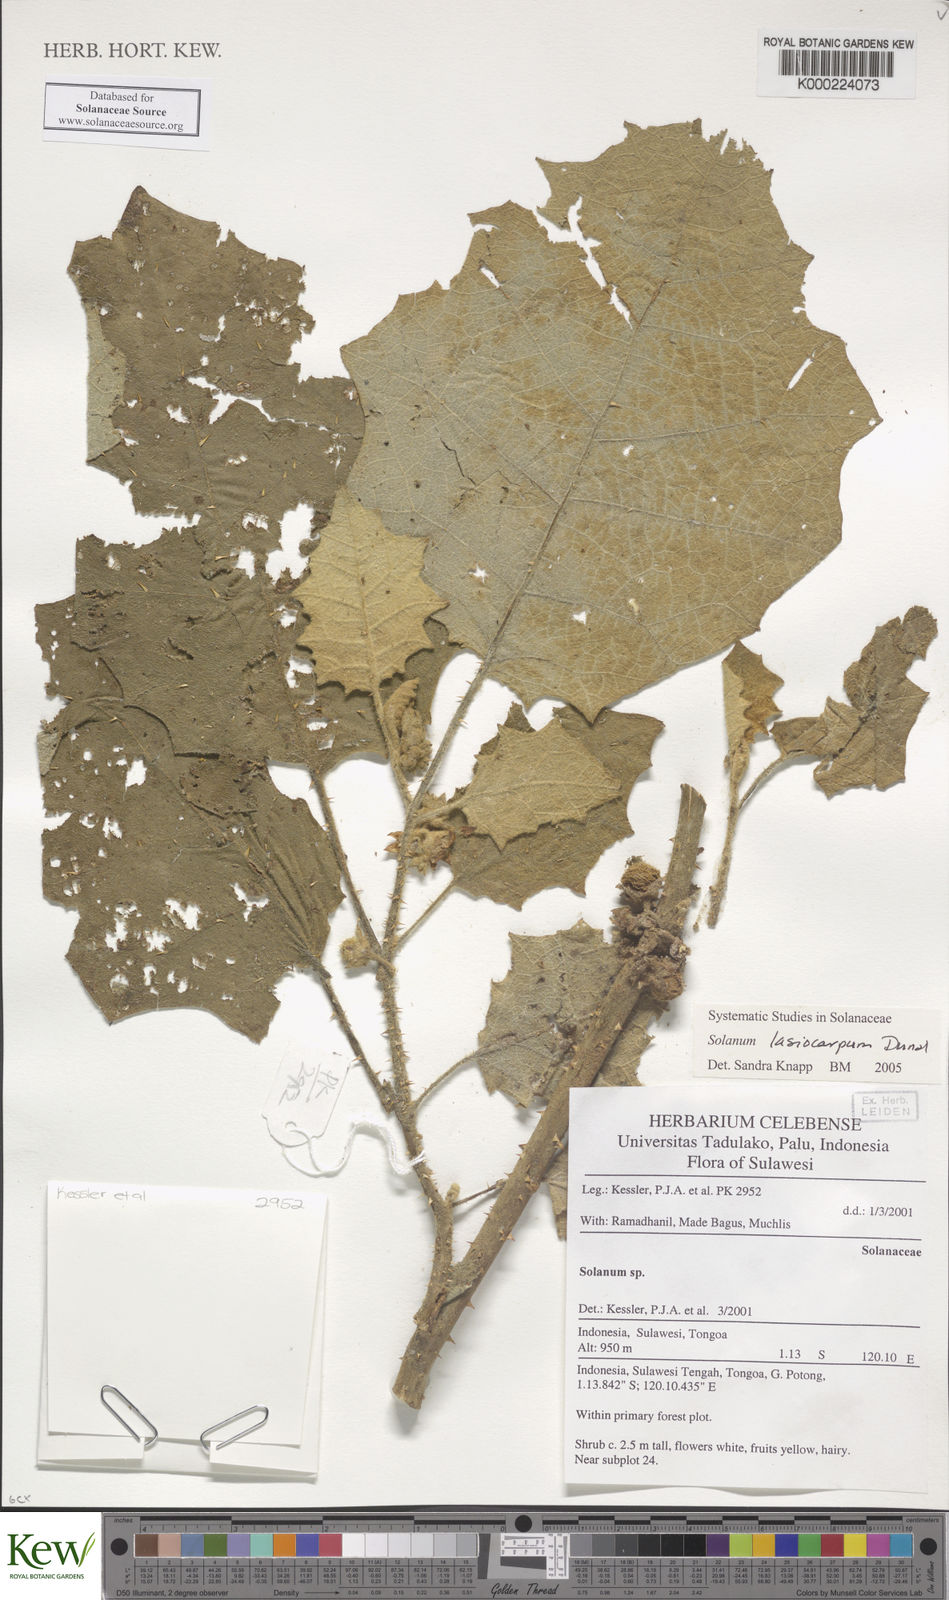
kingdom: Plantae
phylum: Tracheophyta
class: Magnoliopsida
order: Solanales
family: Solanaceae
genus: Solanum
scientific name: Solanum lasiocarpum
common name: Indian nightshade
